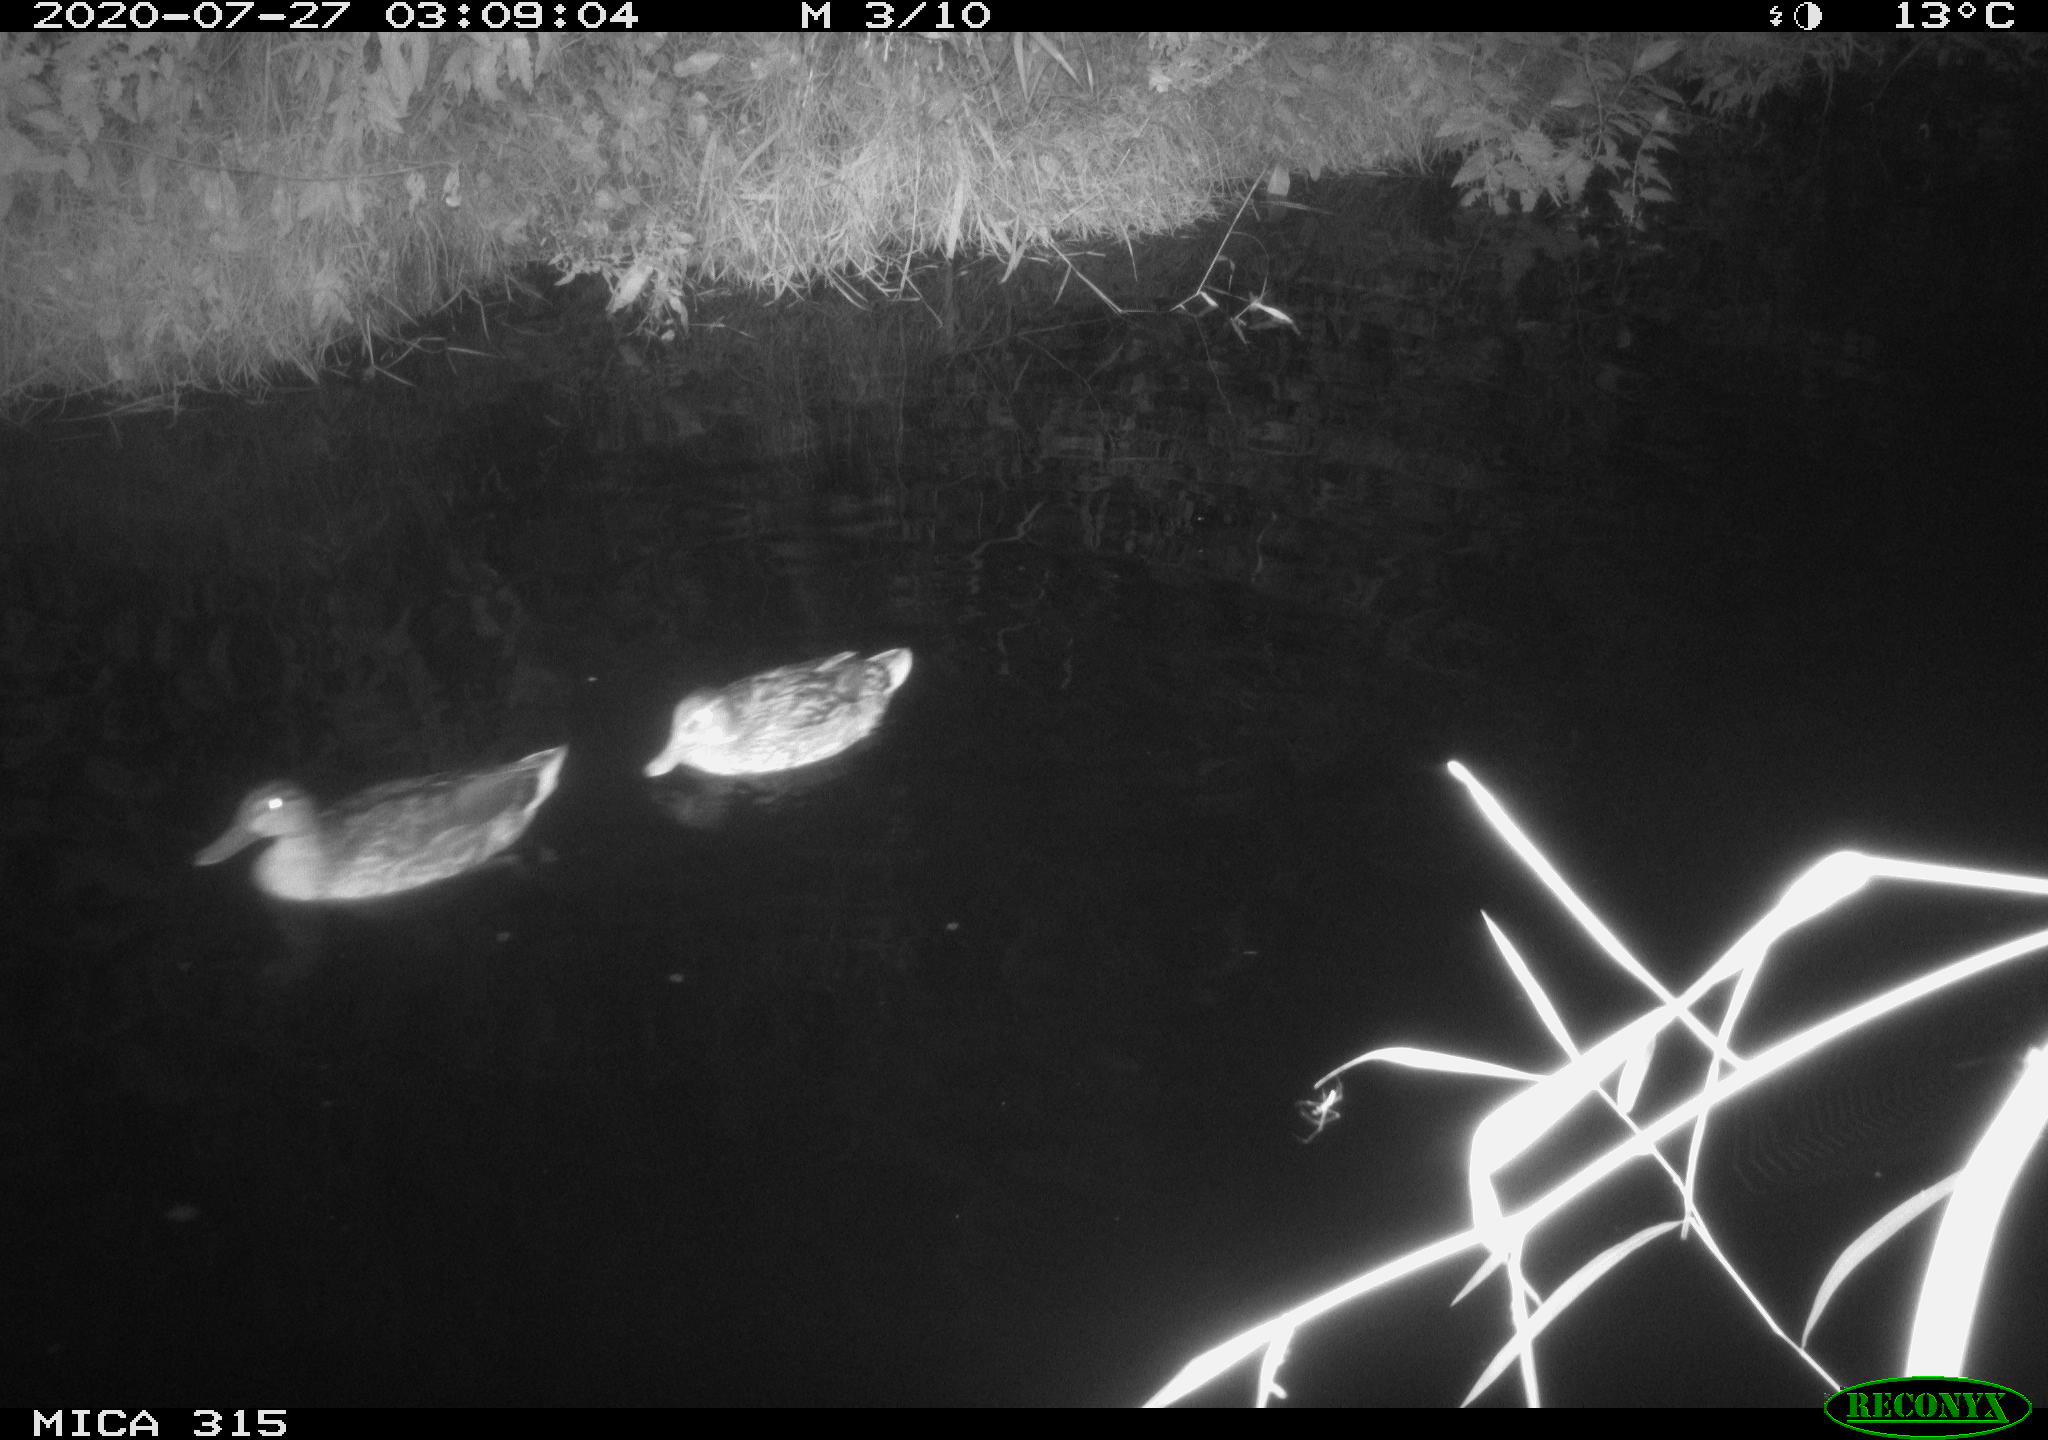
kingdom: Animalia
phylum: Chordata
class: Aves
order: Anseriformes
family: Anatidae
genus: Anas
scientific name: Anas platyrhynchos
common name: Mallard
